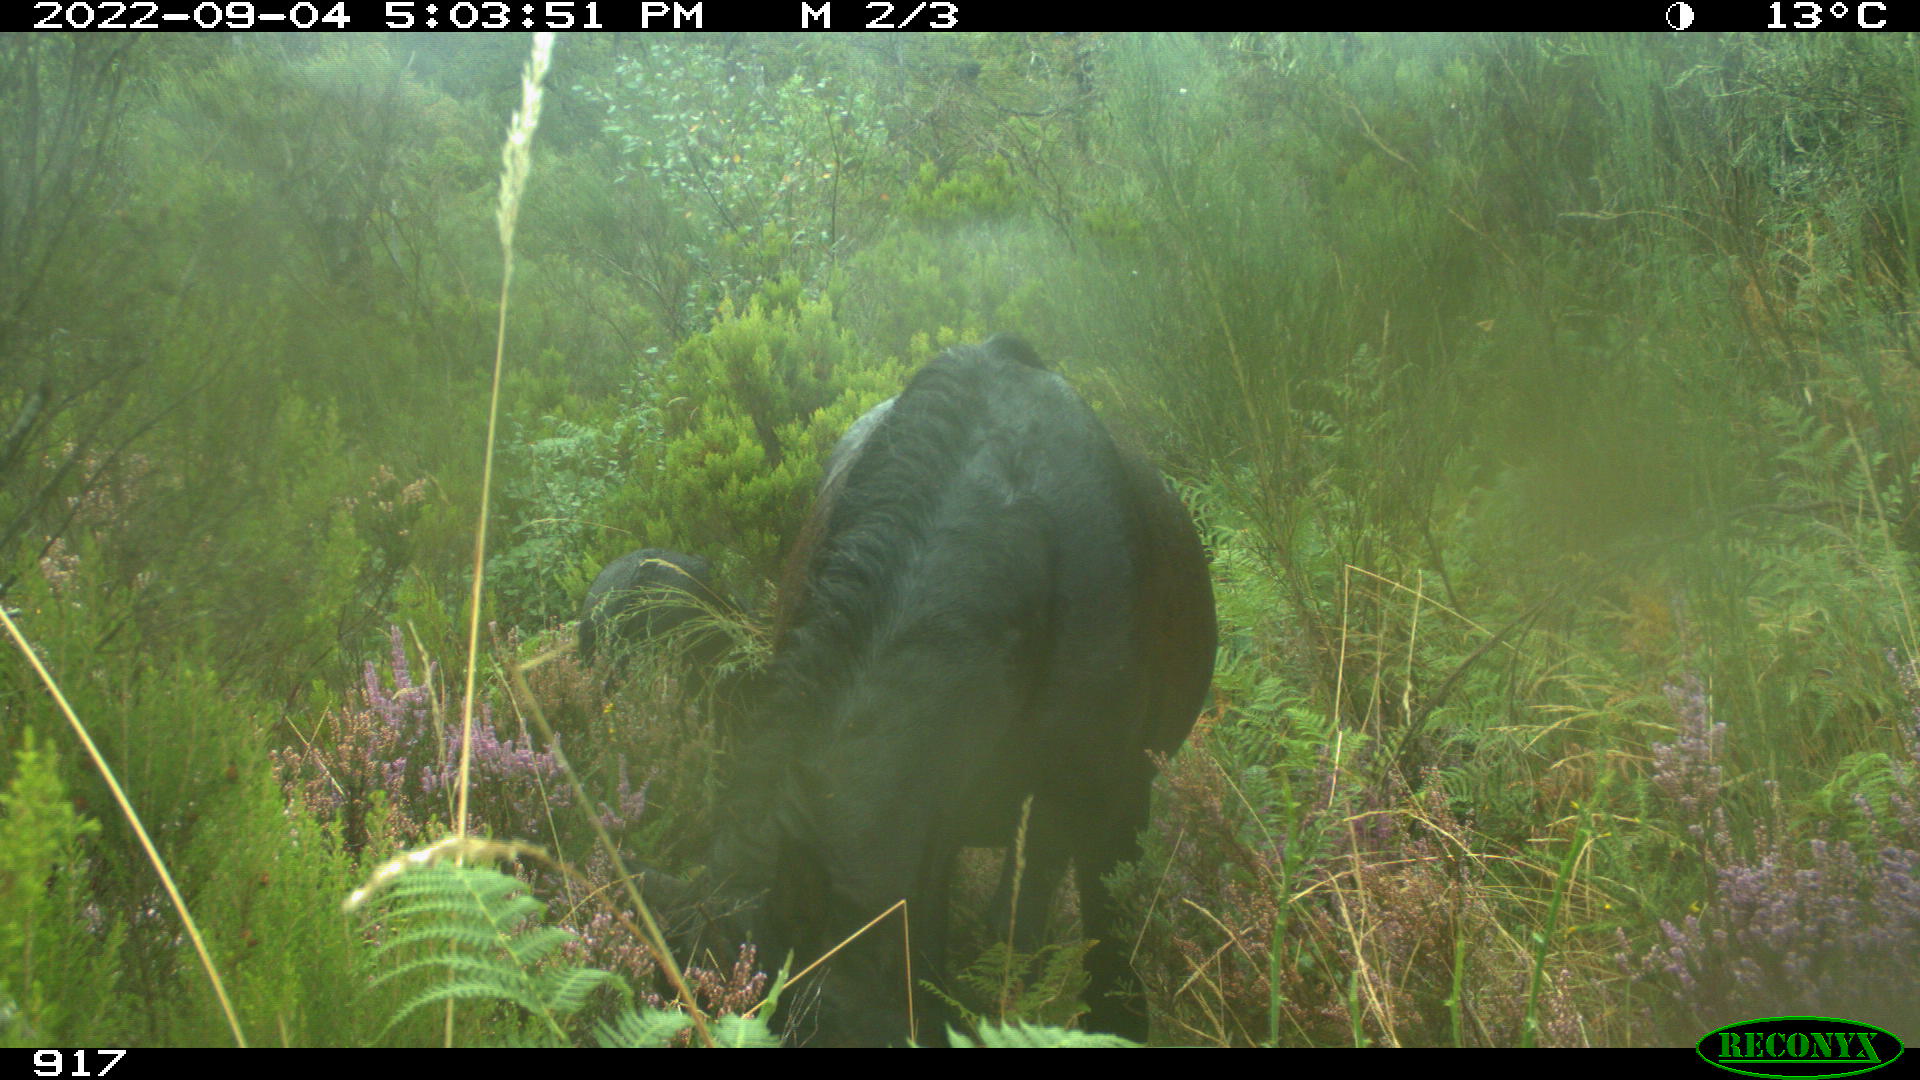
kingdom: Animalia
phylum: Chordata
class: Mammalia
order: Perissodactyla
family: Equidae
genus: Equus
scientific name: Equus caballus
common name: Horse
